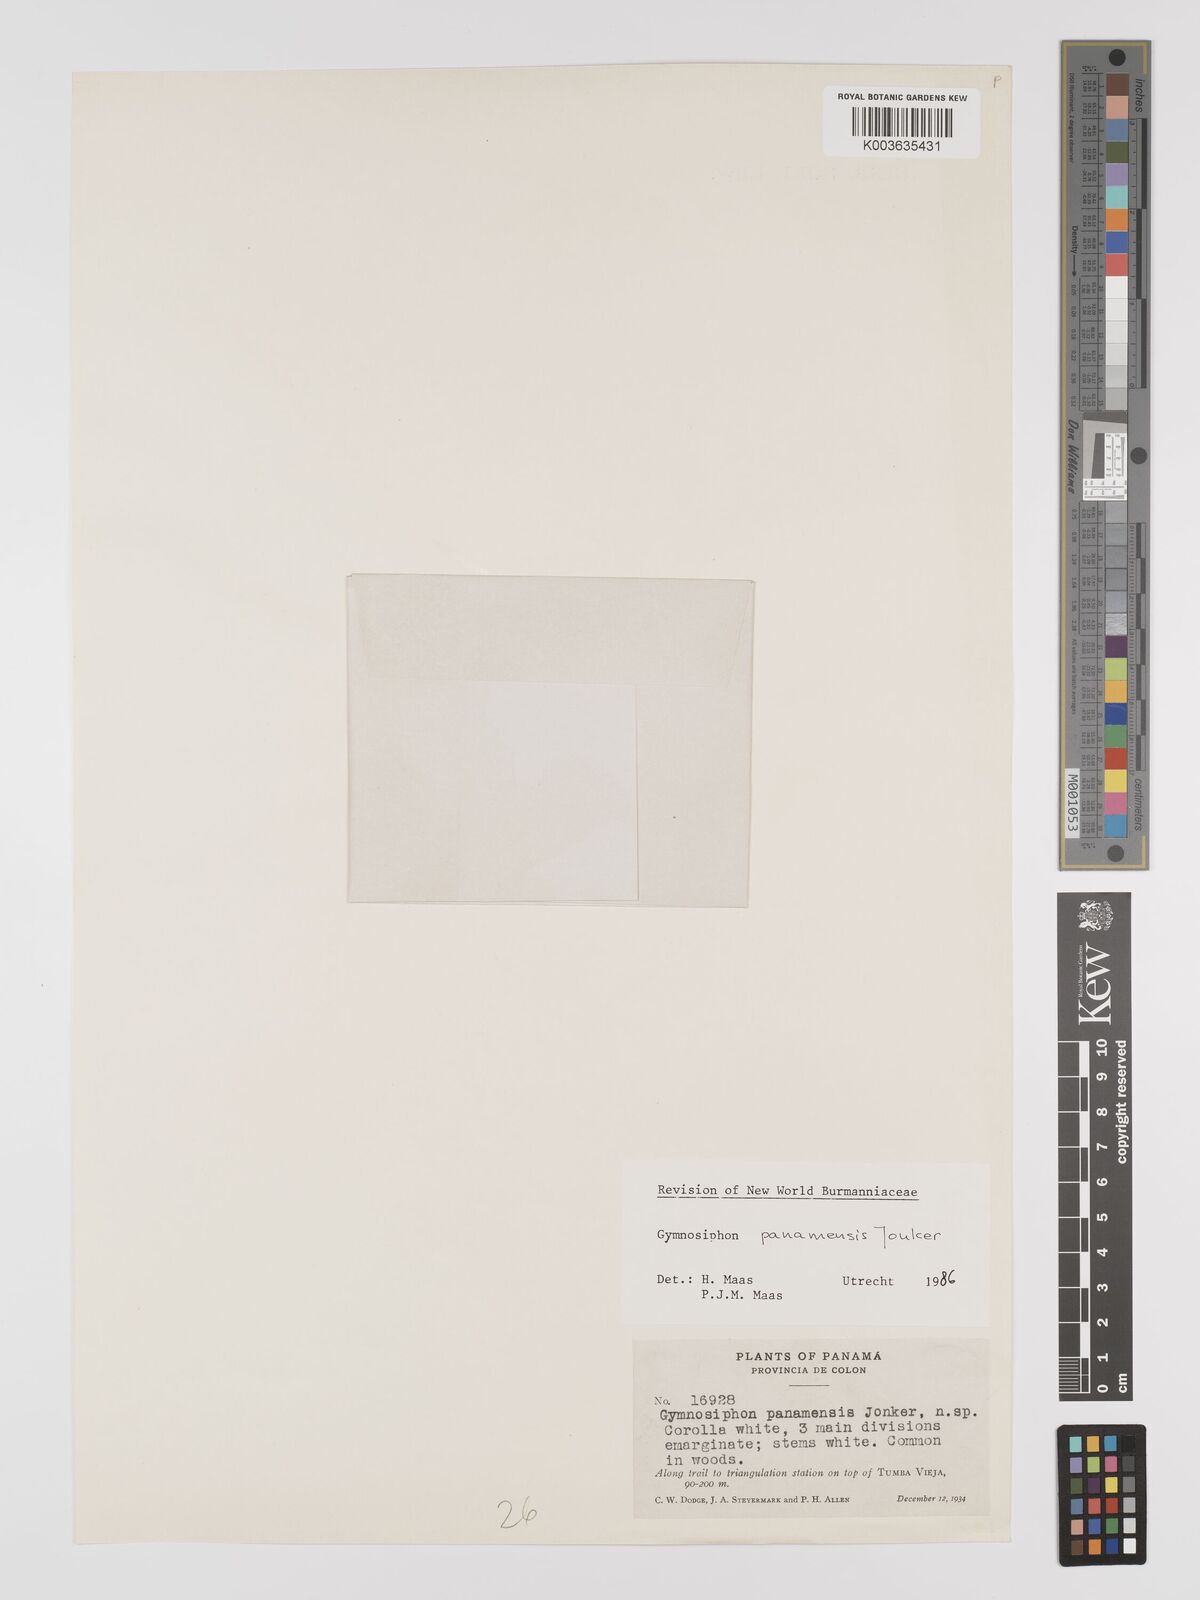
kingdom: Plantae
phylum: Tracheophyta
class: Liliopsida
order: Dioscoreales
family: Burmanniaceae
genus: Gymnosiphon
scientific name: Gymnosiphon panamensis
